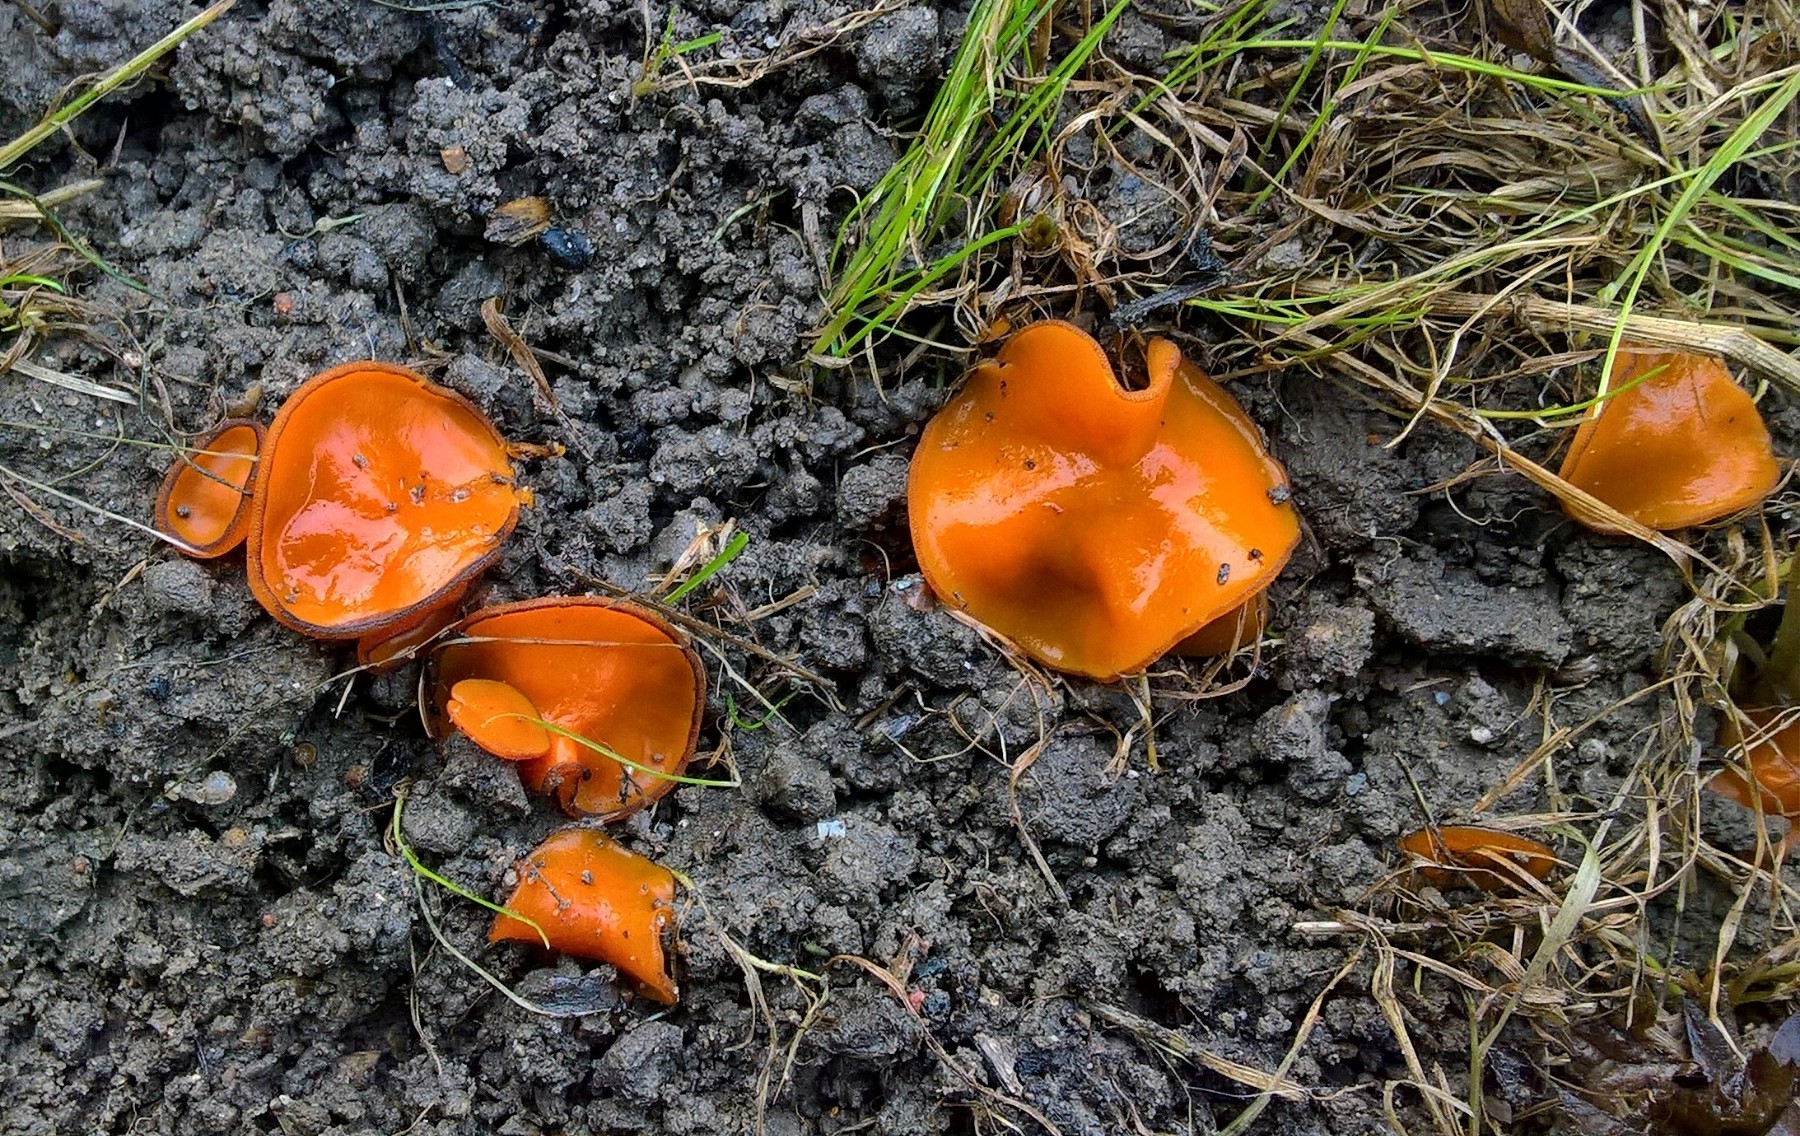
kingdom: Fungi
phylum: Ascomycota
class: Pezizomycetes
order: Pezizales
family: Pyronemataceae
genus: Melastiza
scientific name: Melastiza cornubiensis
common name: mørkrandet rødbæger
